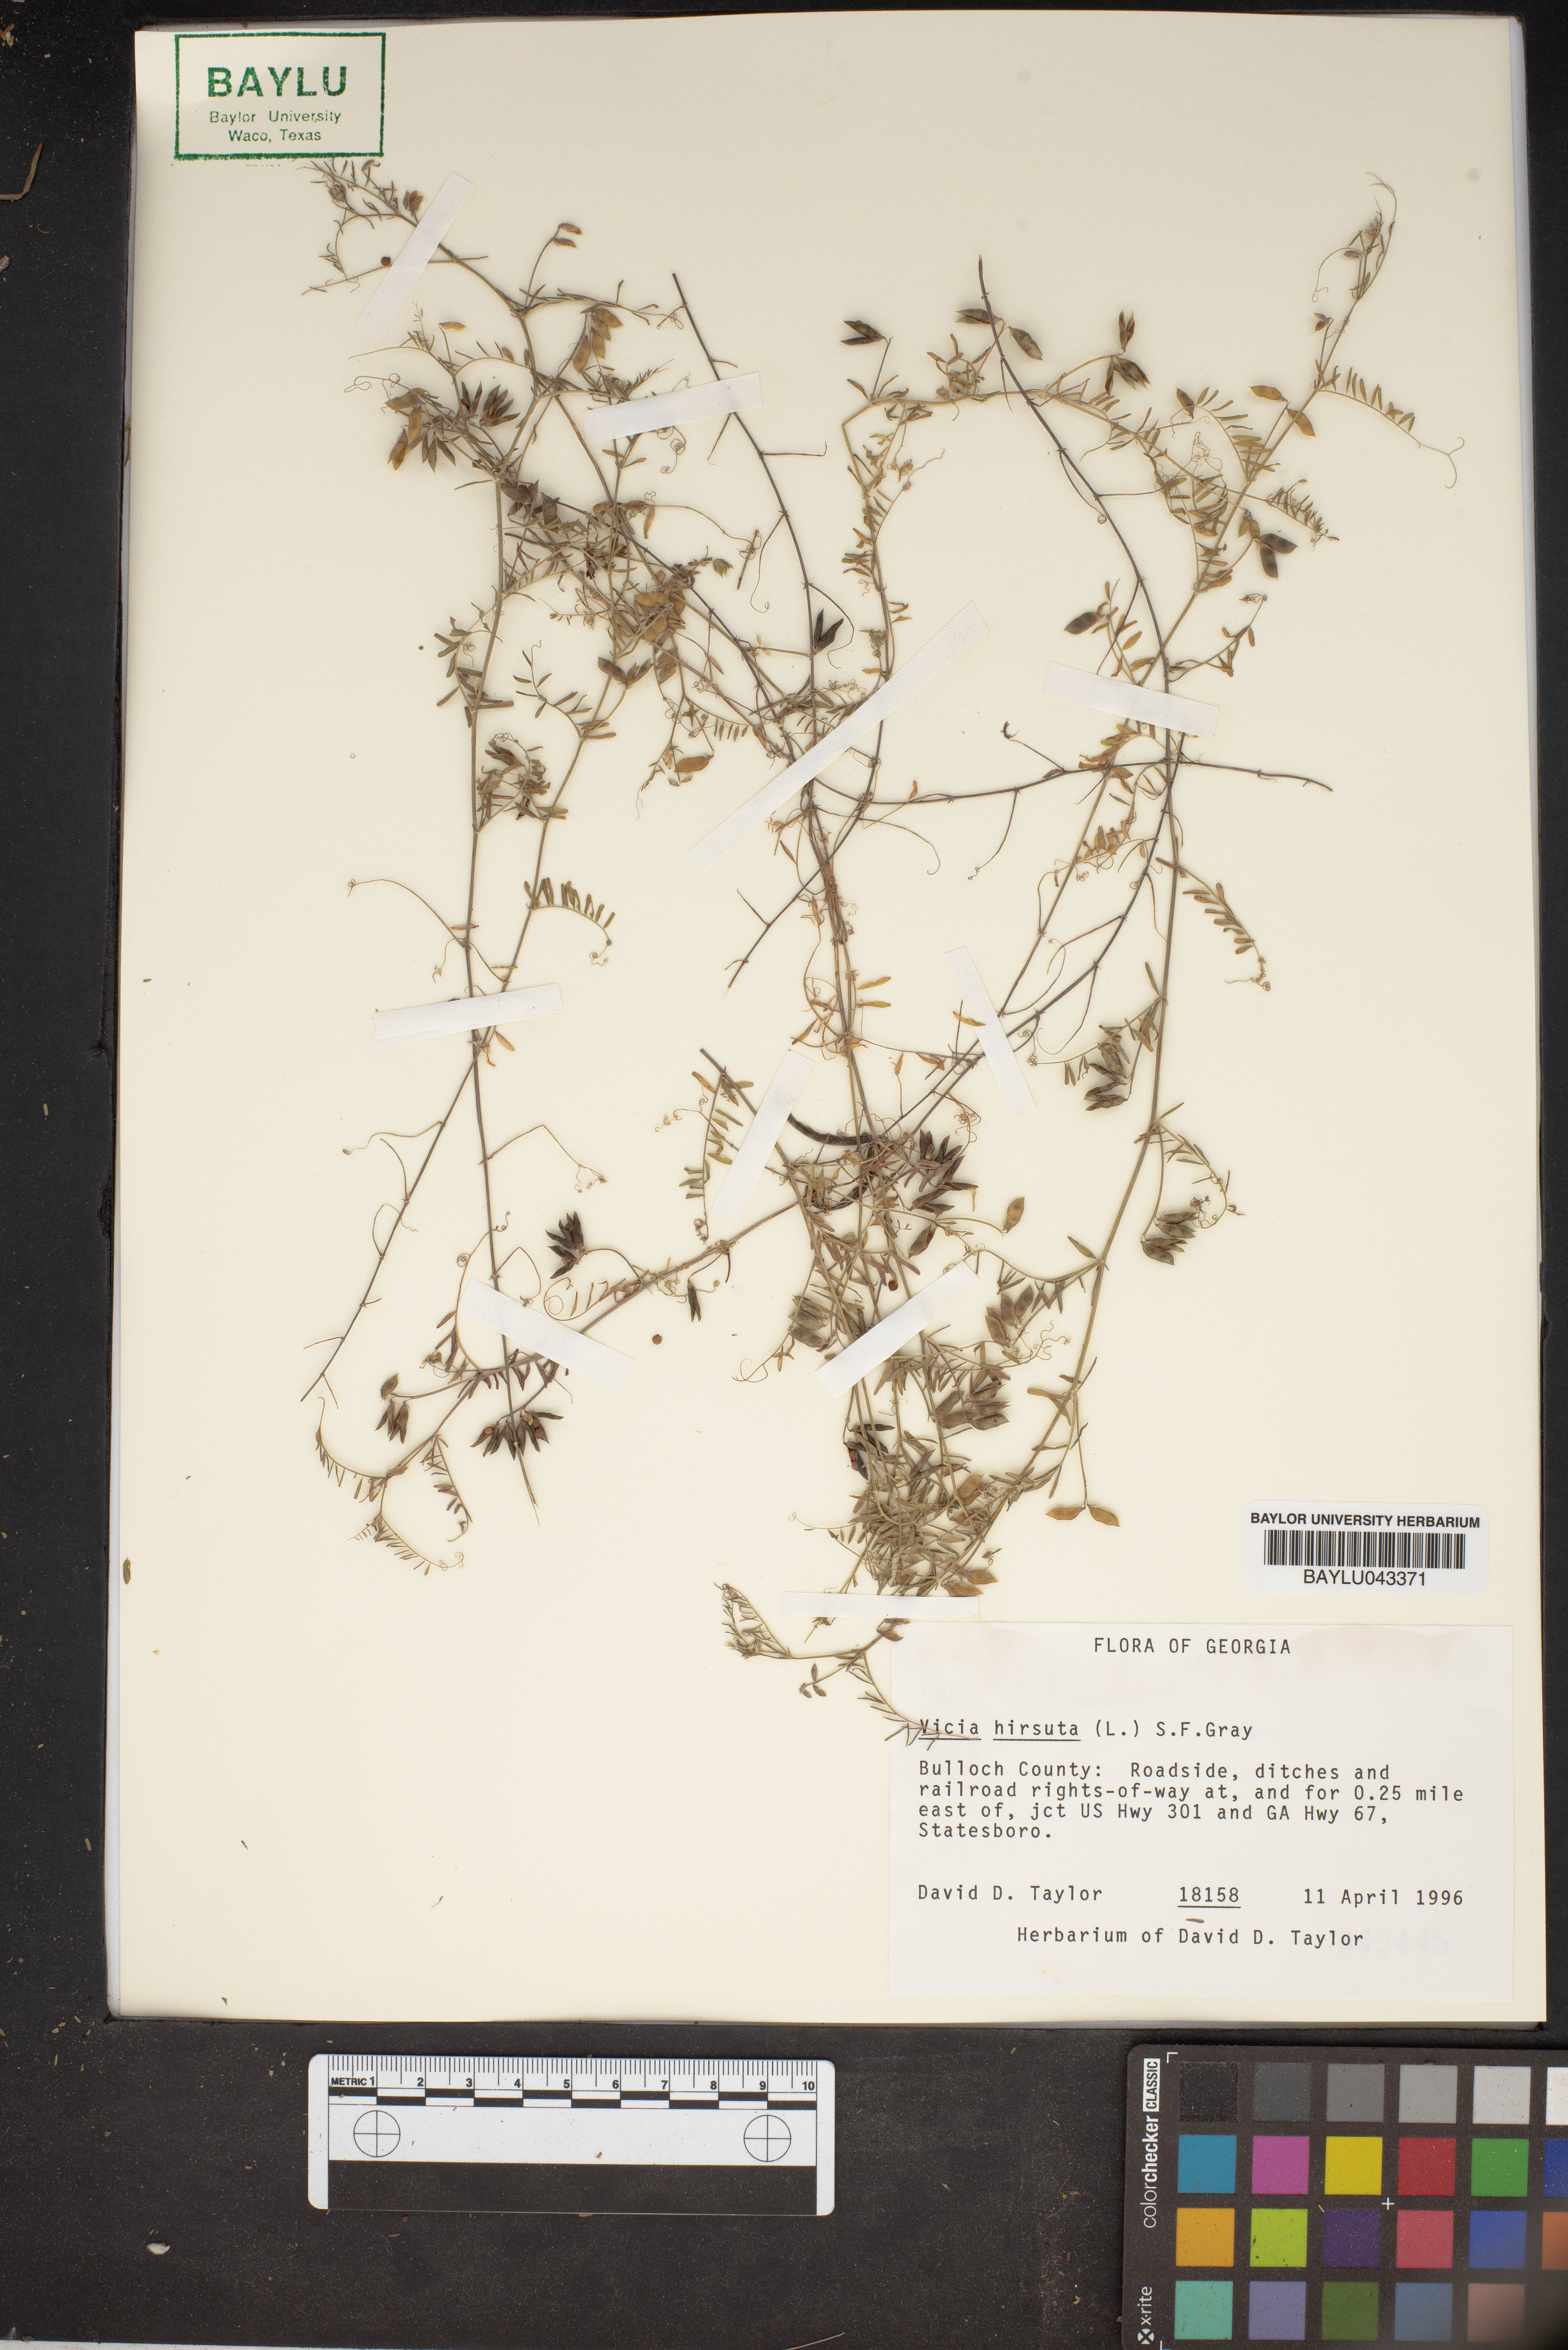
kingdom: Plantae
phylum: Tracheophyta
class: Magnoliopsida
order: Fabales
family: Fabaceae
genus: Vicia
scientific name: Vicia hirsuta
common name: Tiny vetch
